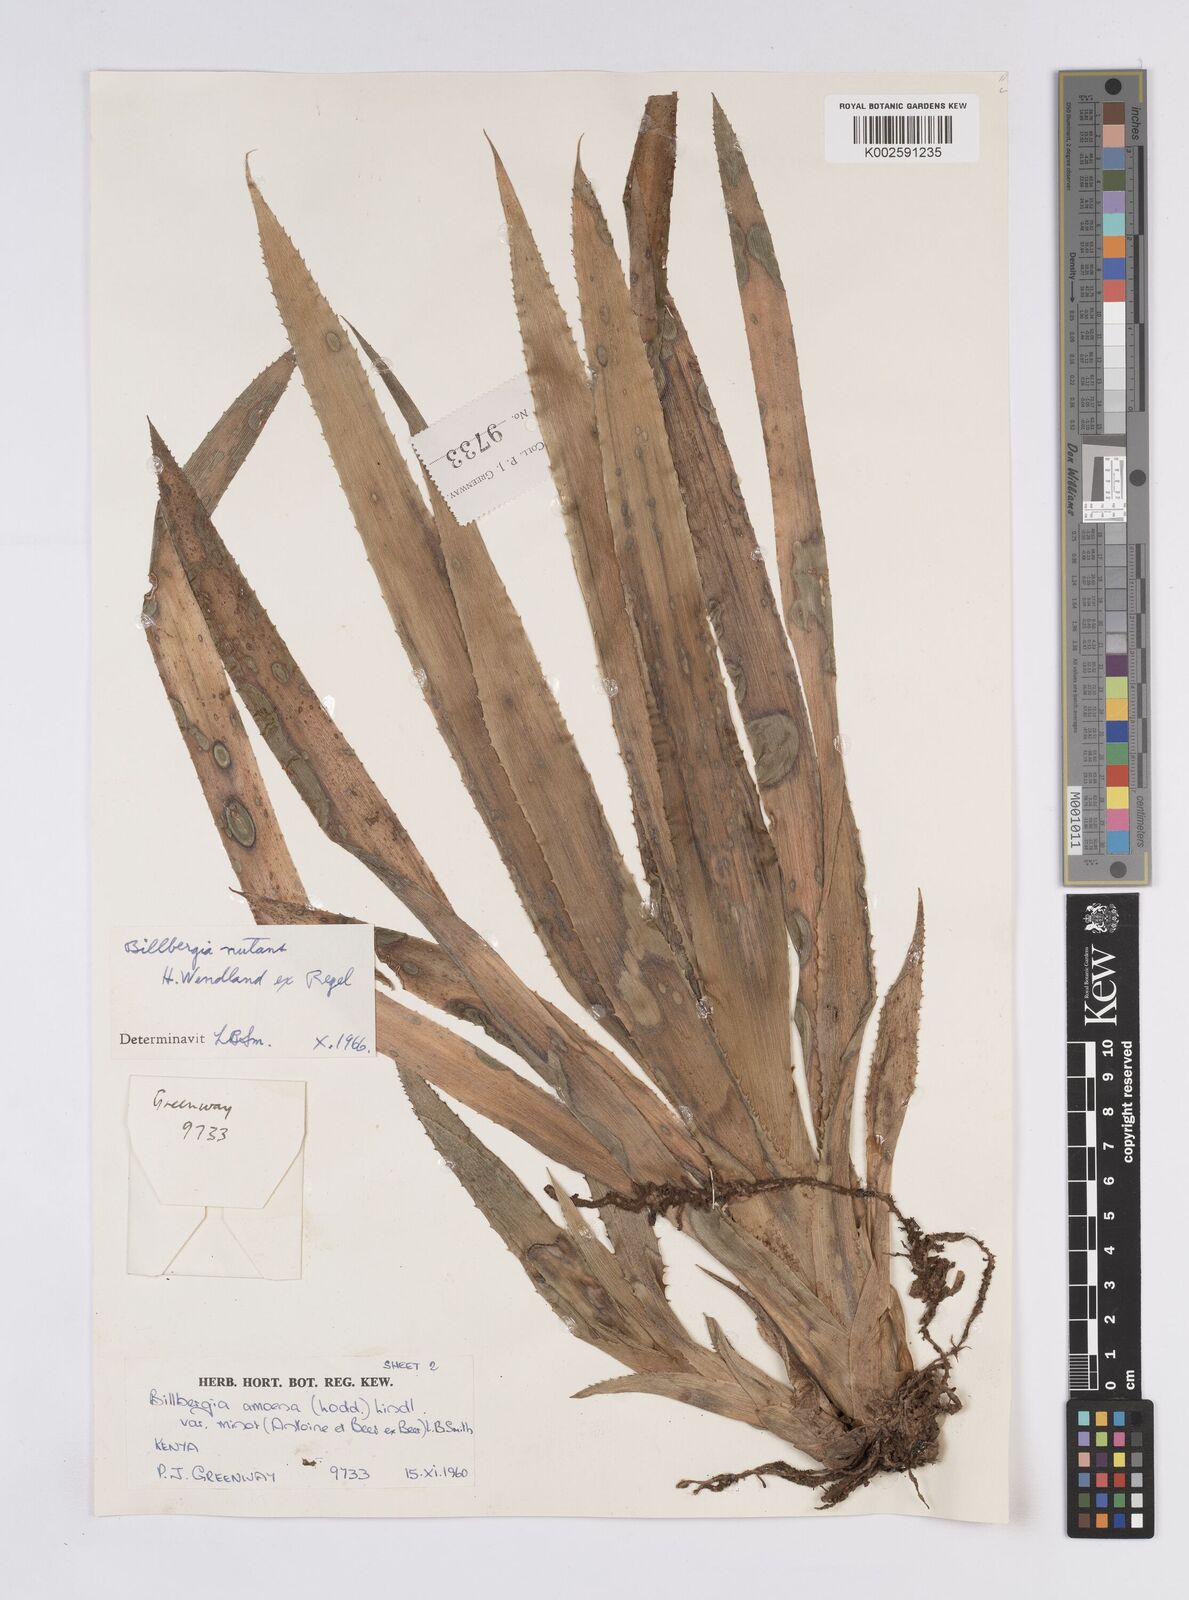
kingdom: Plantae
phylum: Tracheophyta
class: Liliopsida
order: Poales
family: Bromeliaceae
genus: Billbergia
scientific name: Billbergia nutans
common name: Friendship-plant
